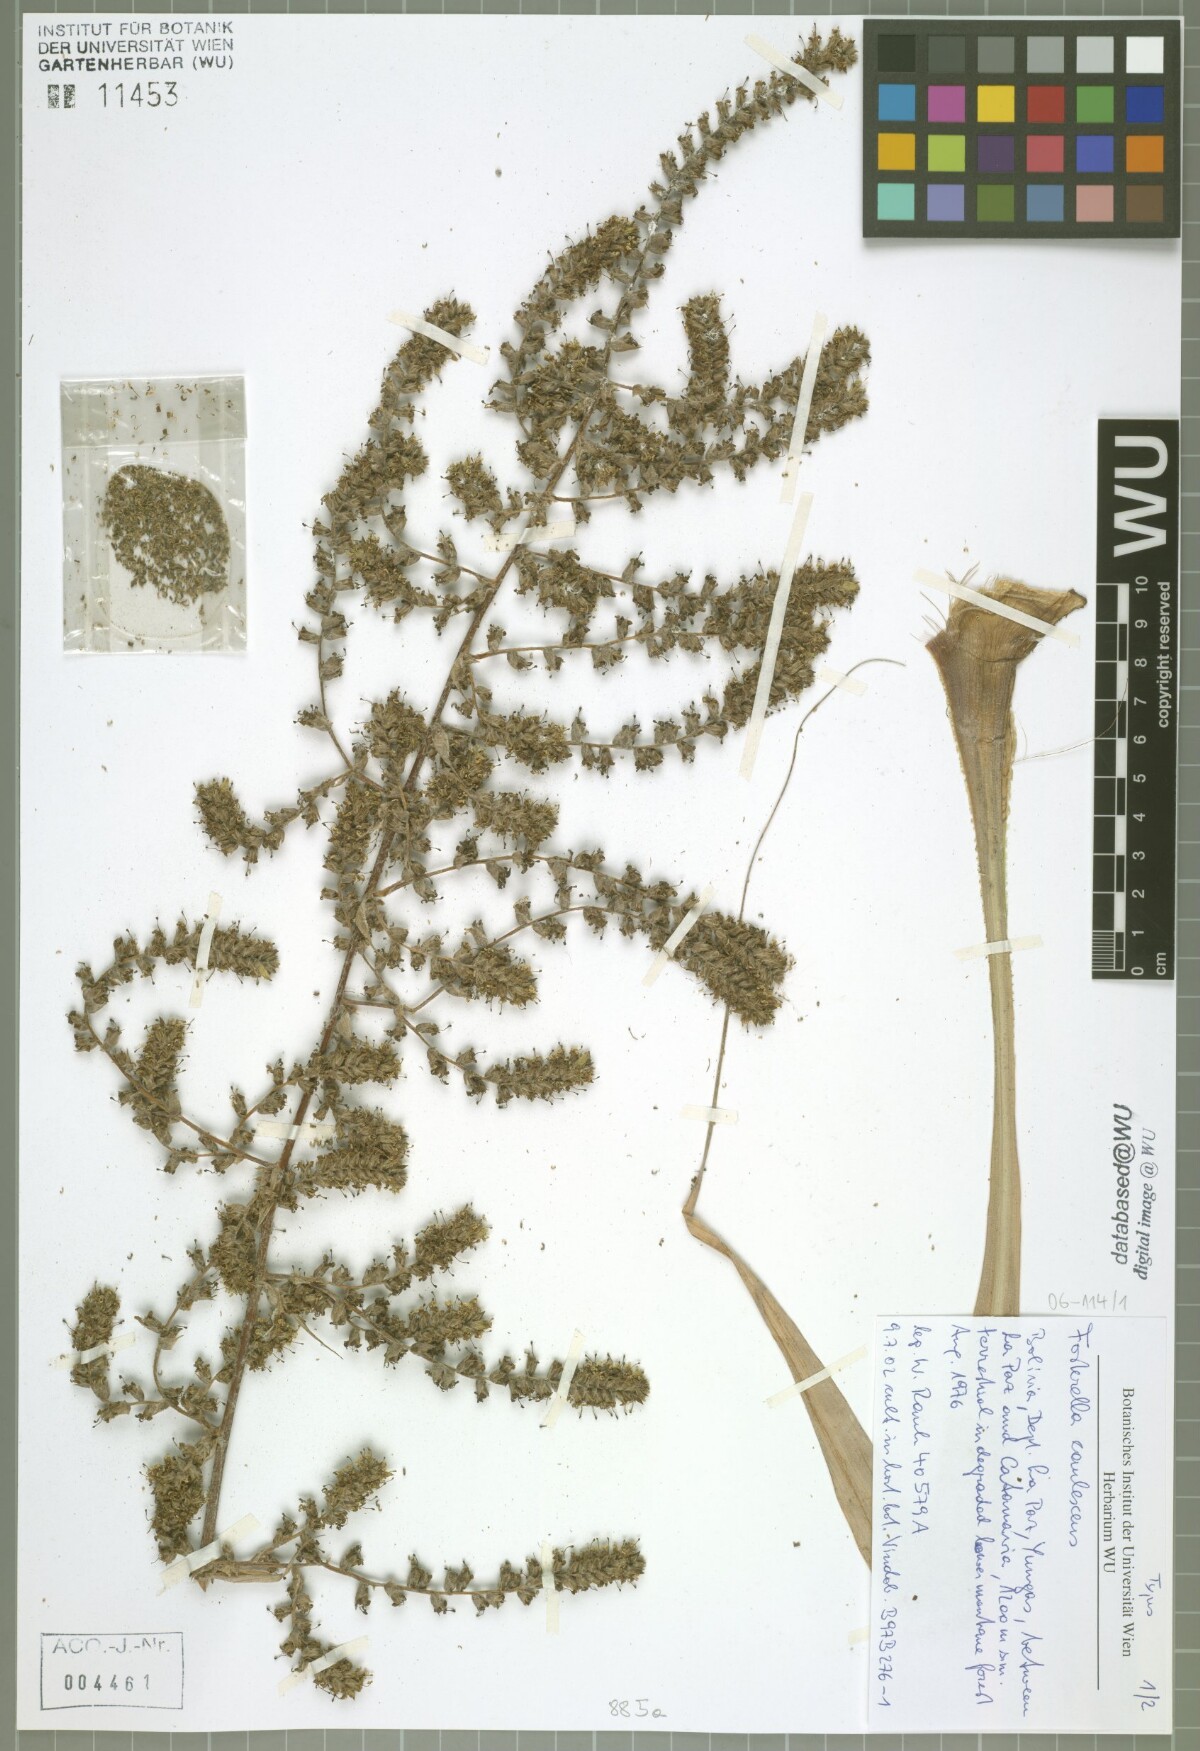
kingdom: Plantae
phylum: Tracheophyta
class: Liliopsida
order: Poales
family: Bromeliaceae
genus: Fosterella
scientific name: Fosterella caulescens
